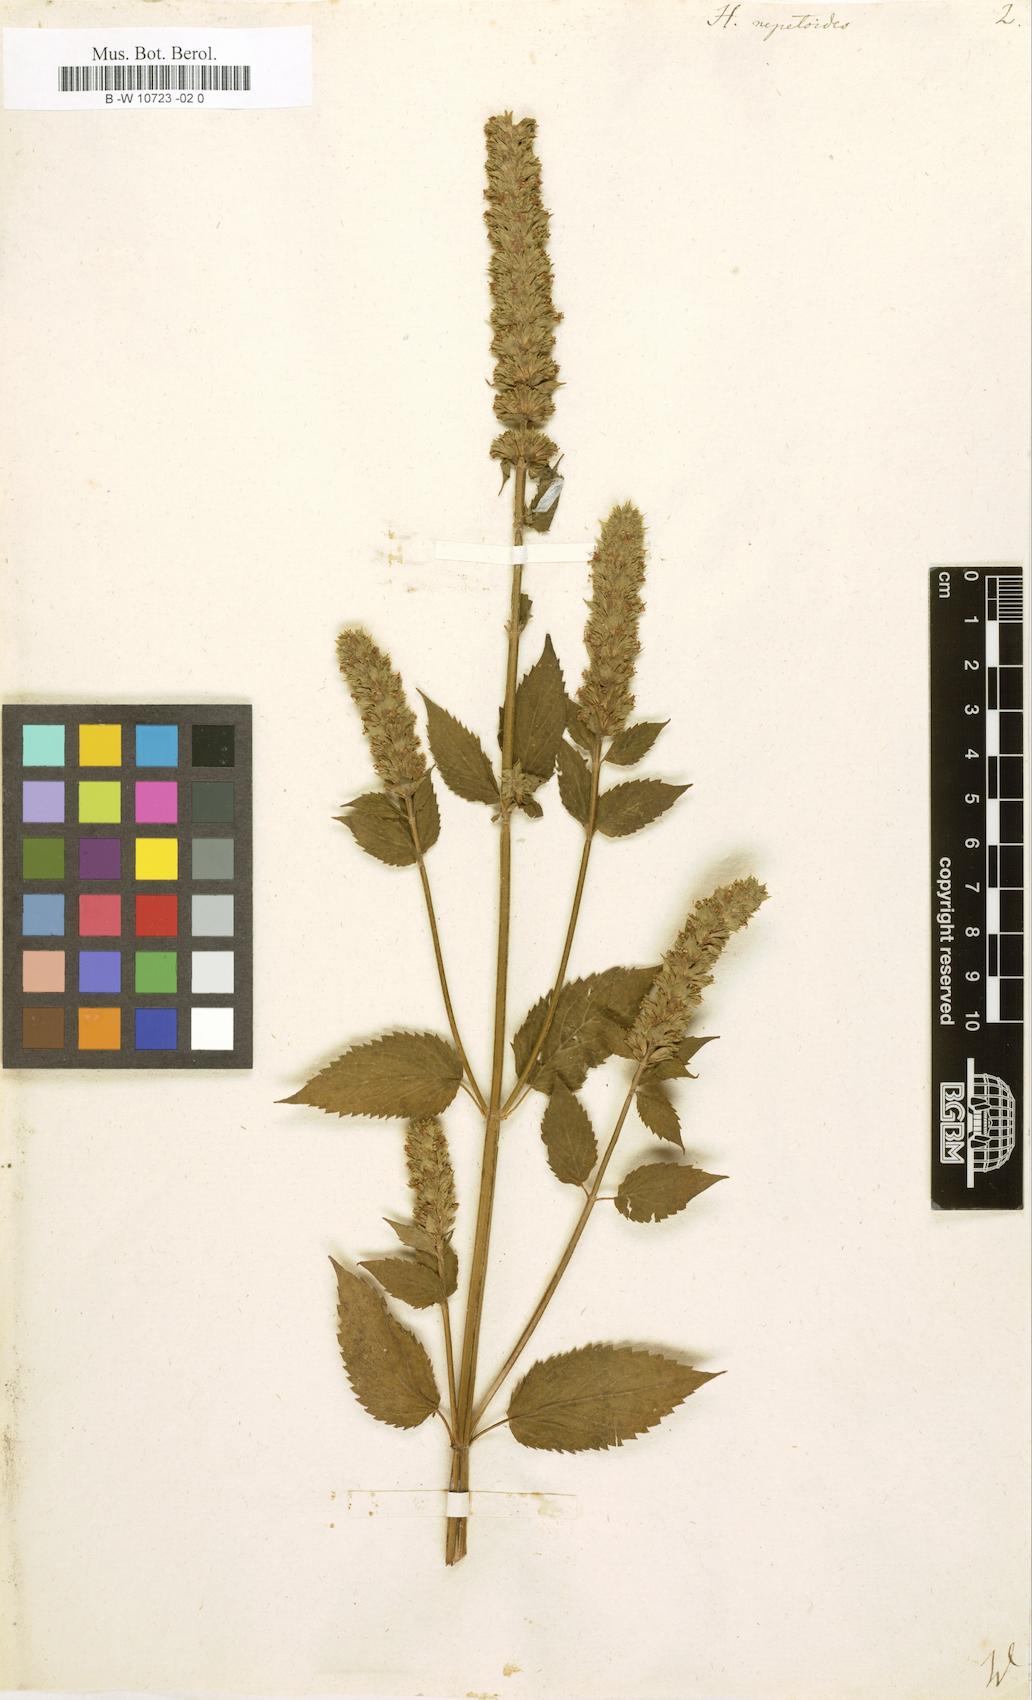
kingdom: Plantae
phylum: Tracheophyta
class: Magnoliopsida
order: Lamiales
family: Lamiaceae
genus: Hyssopus
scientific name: Hyssopus nepetoides
